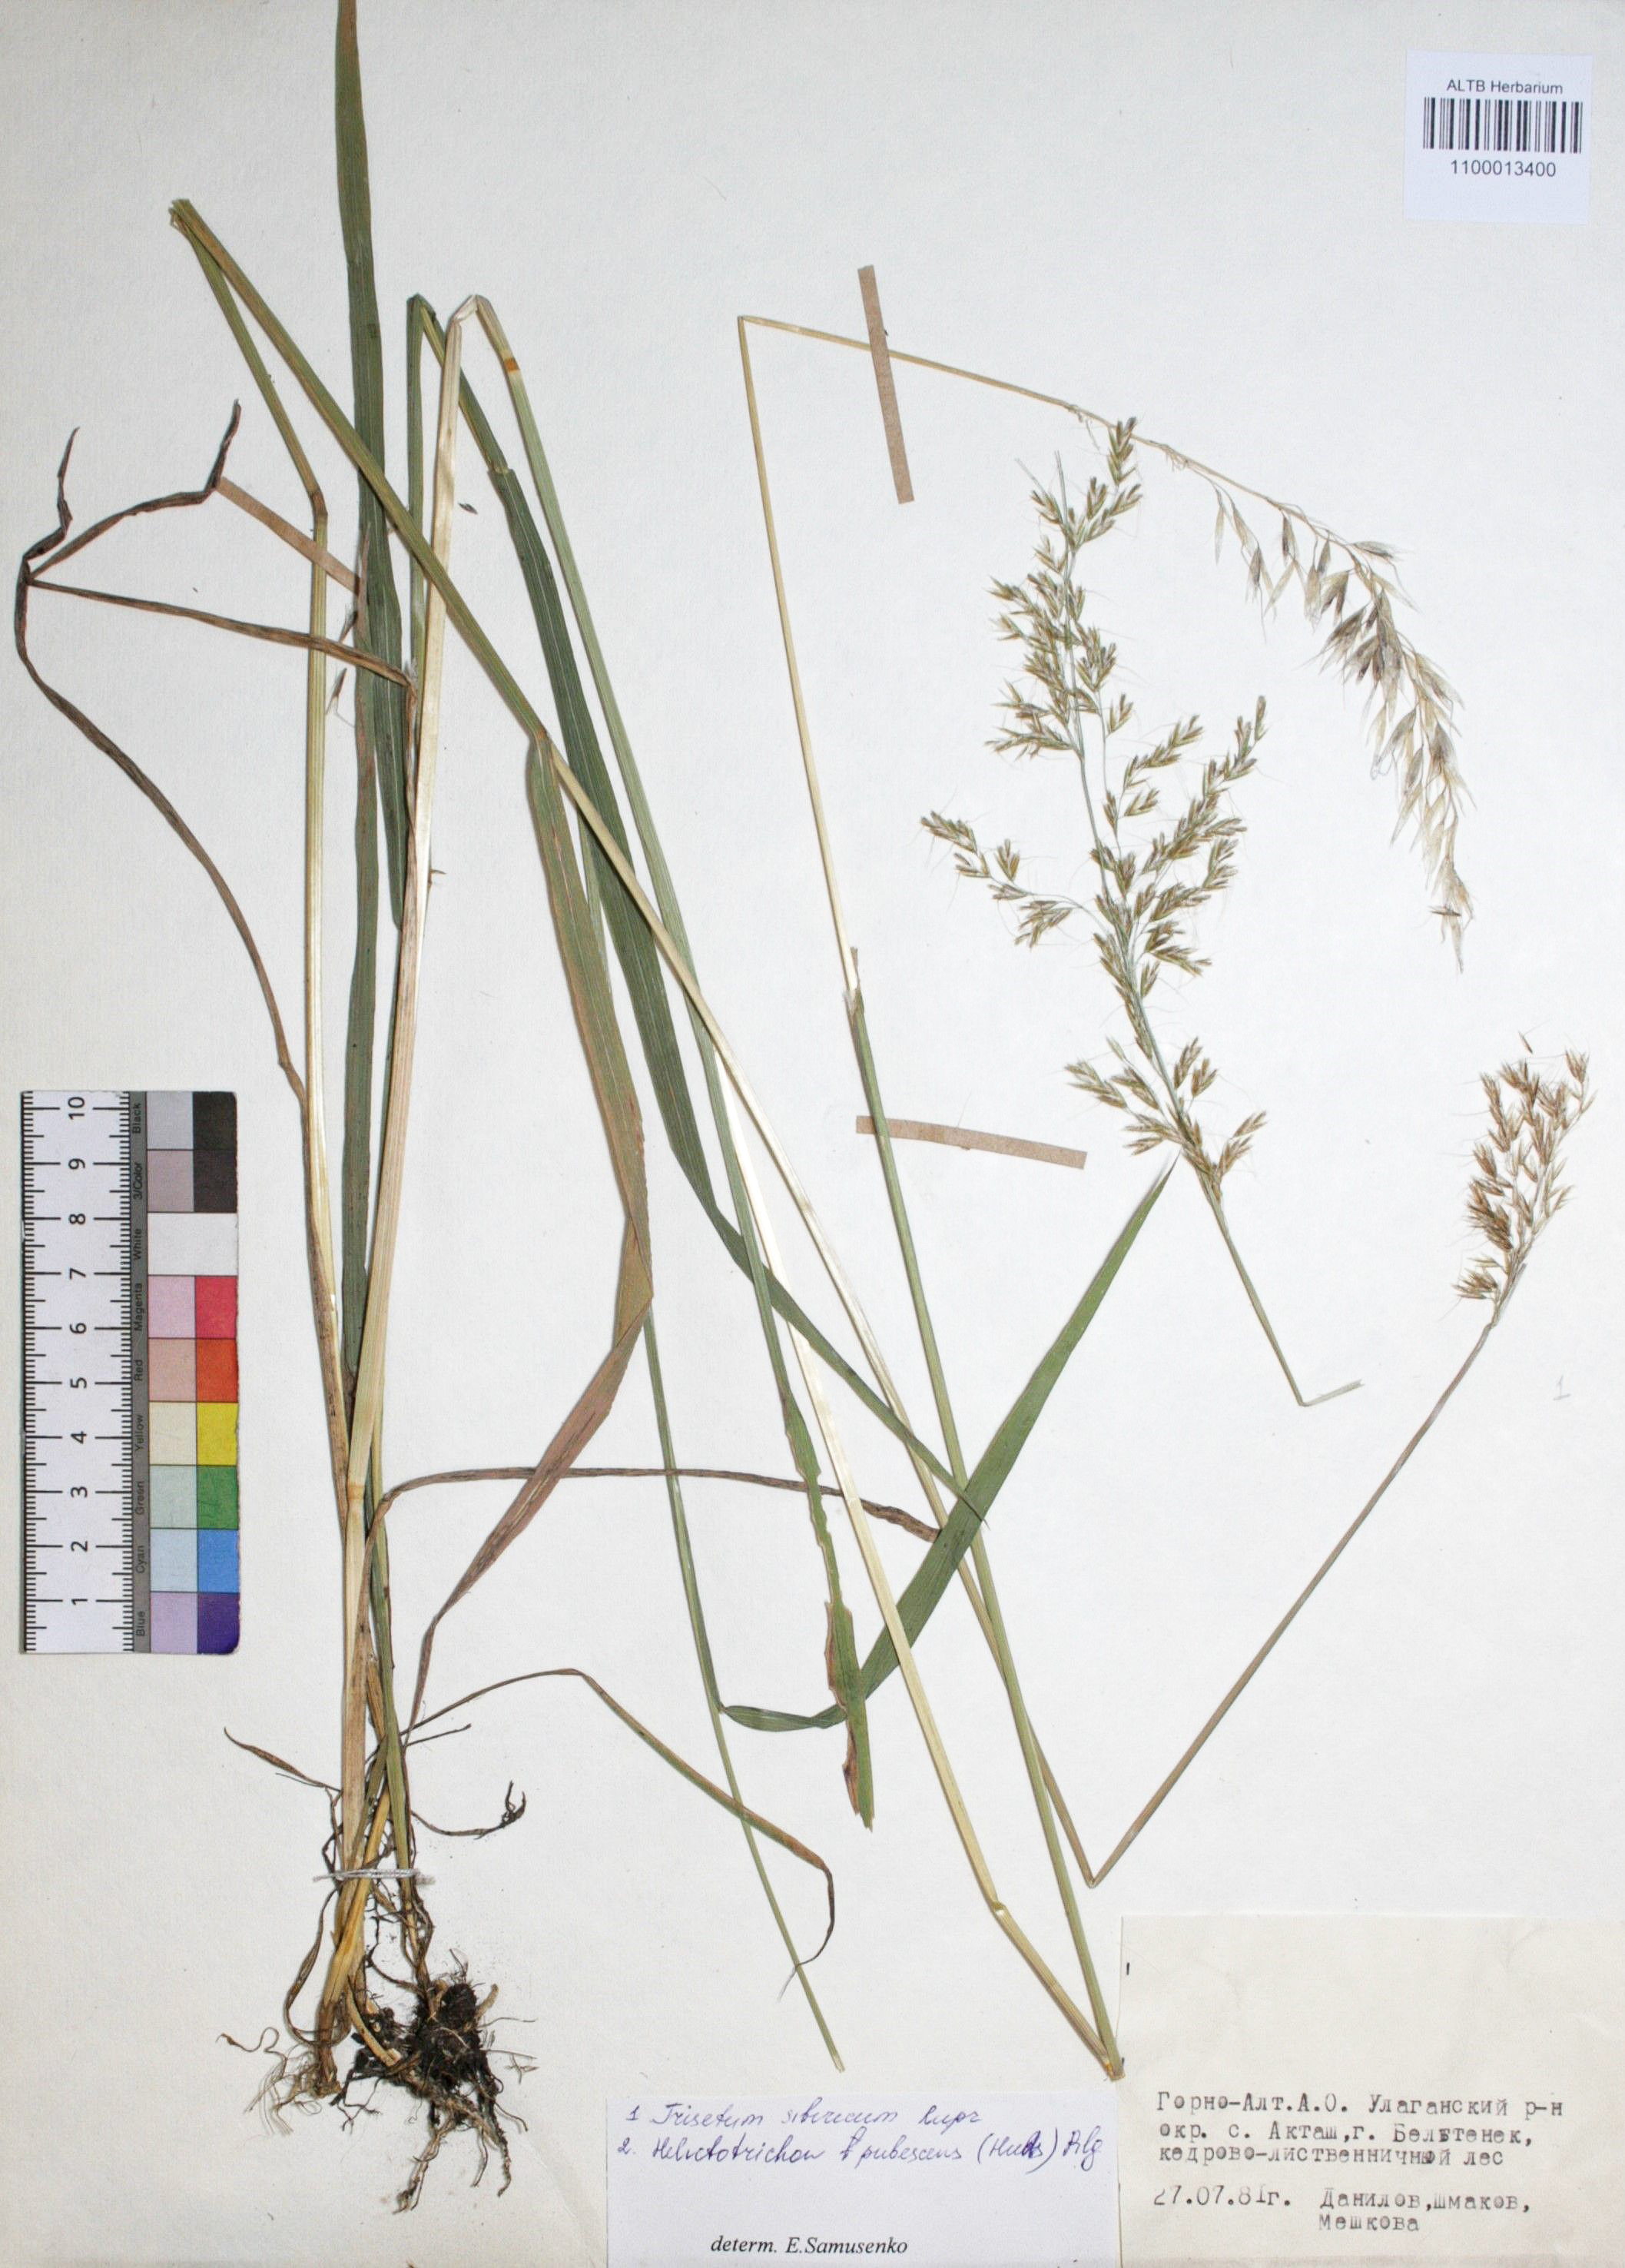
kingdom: Plantae
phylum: Tracheophyta
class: Magnoliopsida
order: Lamiales
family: Lamiaceae
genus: Stachys
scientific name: Stachys annua
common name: Annual yellow-woundwort
